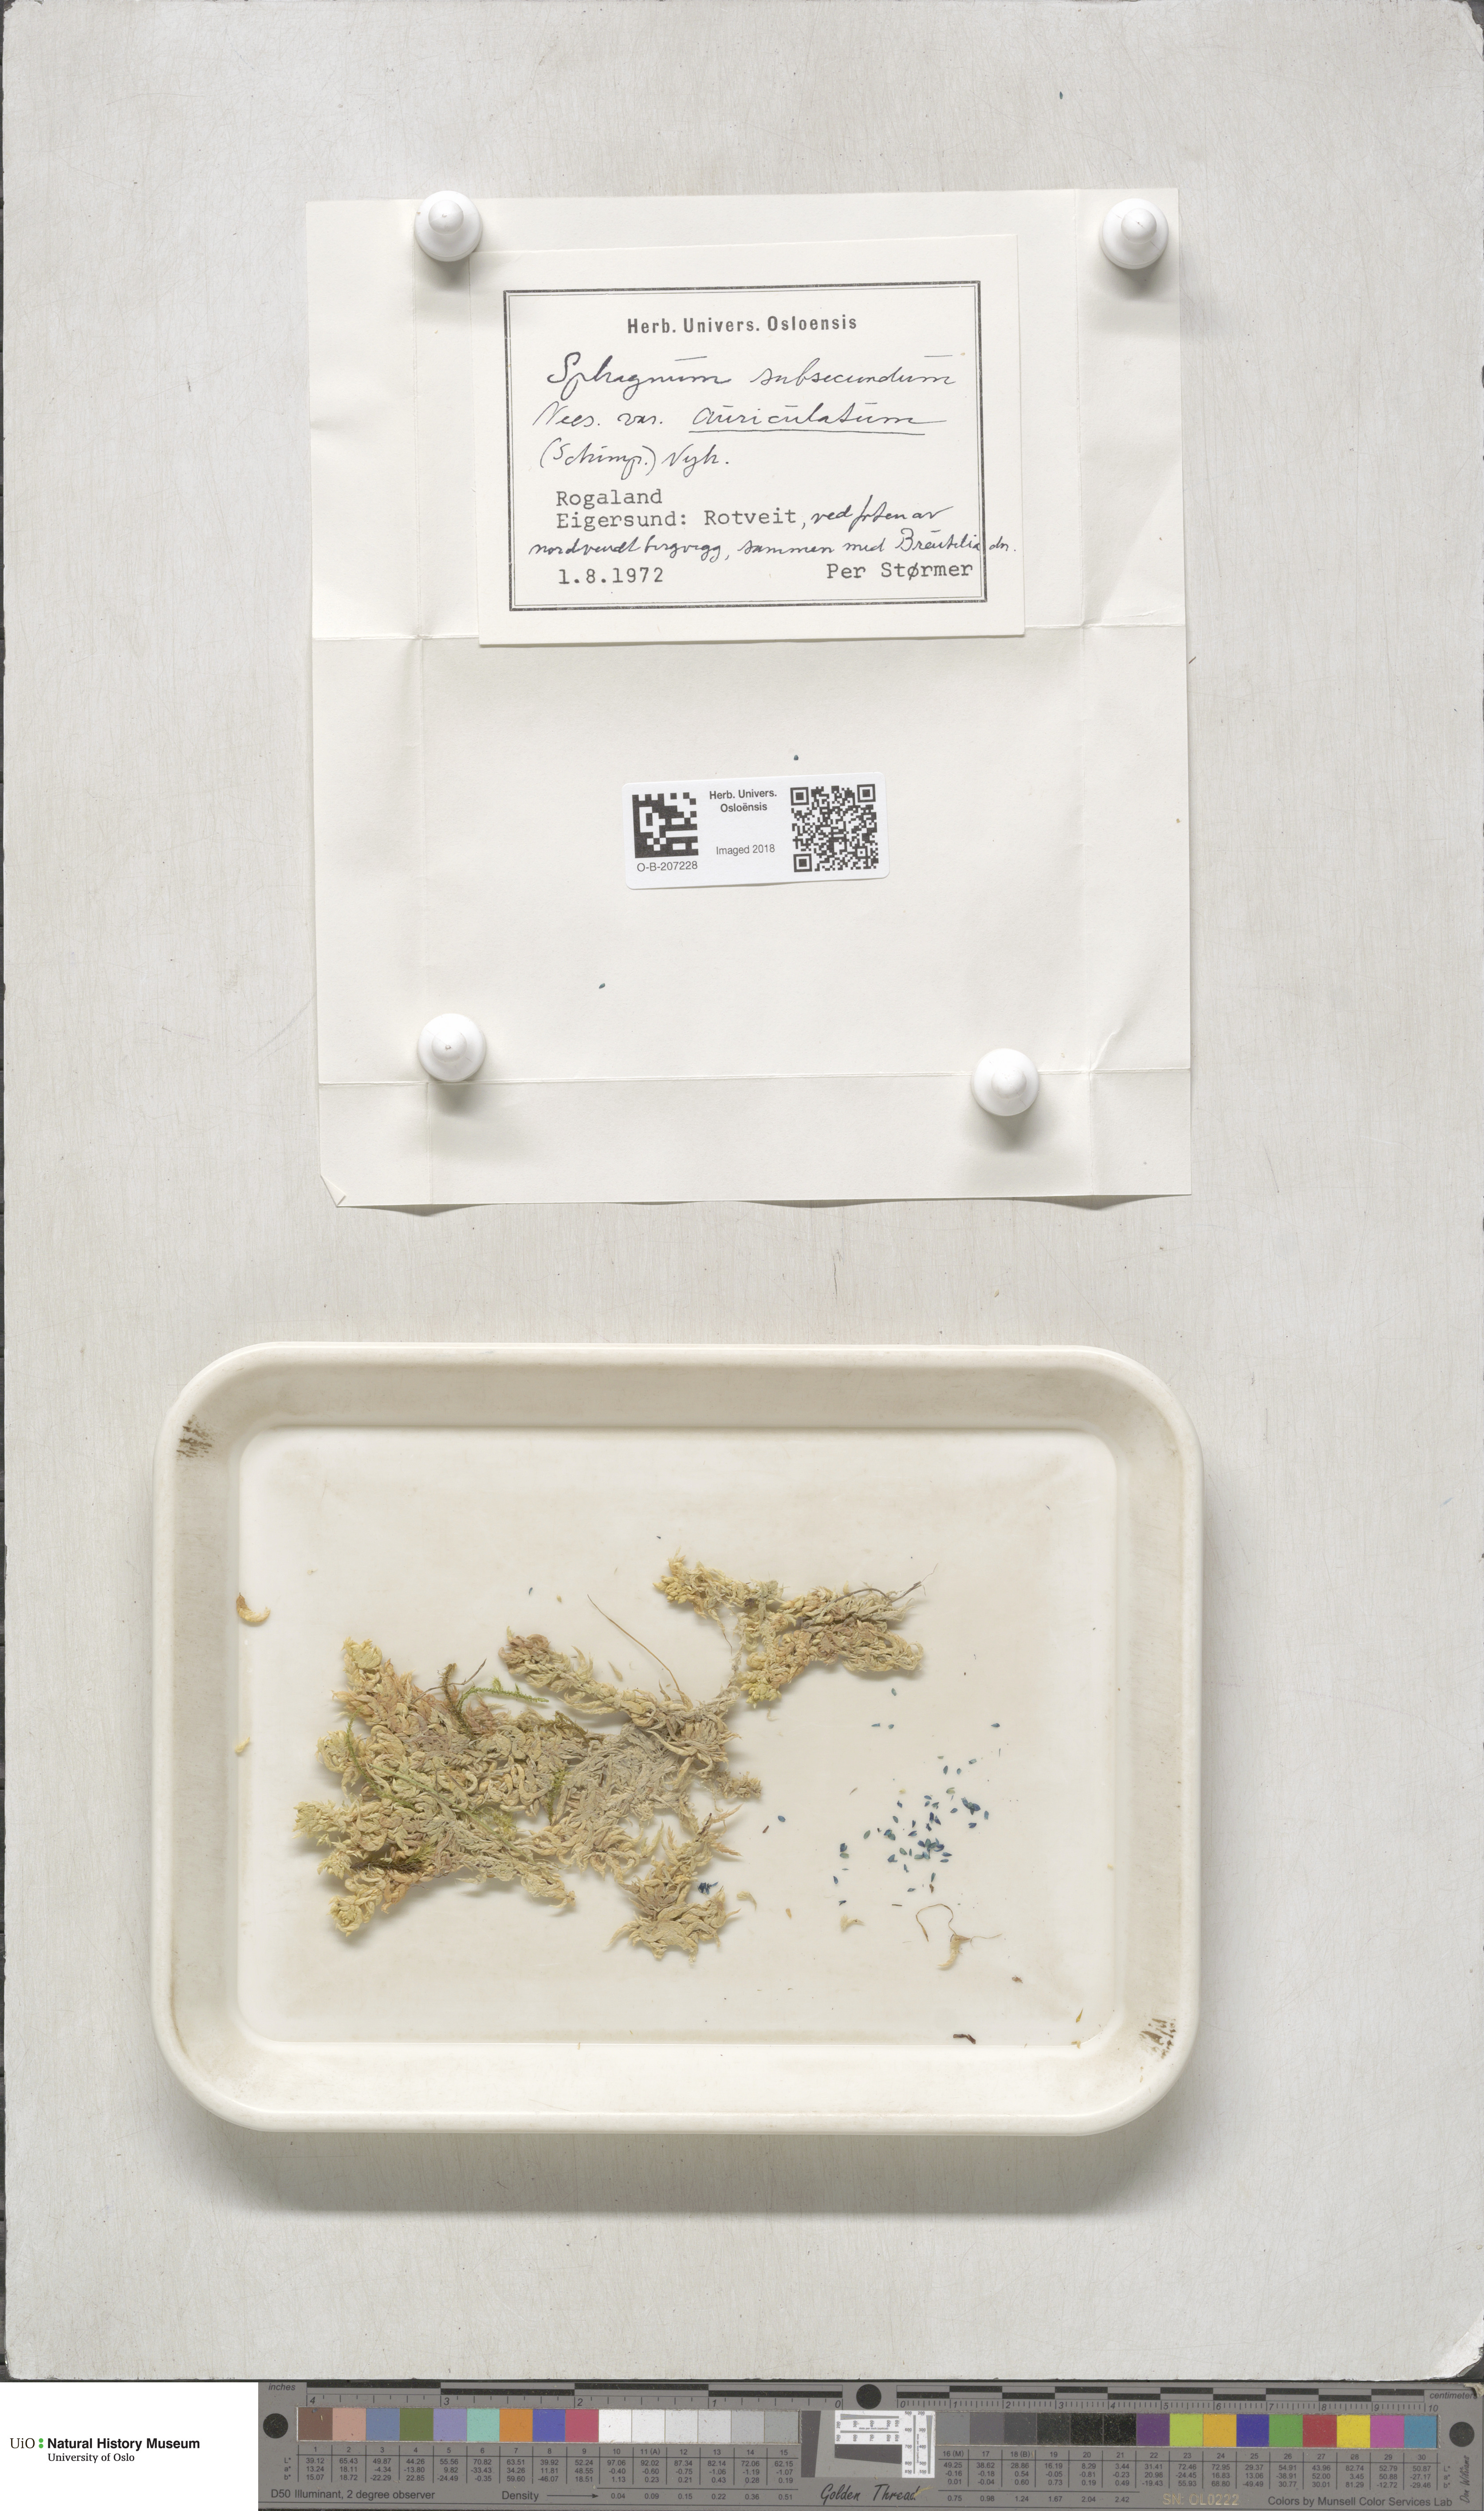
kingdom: Plantae
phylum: Bryophyta
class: Sphagnopsida
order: Sphagnales
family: Sphagnaceae
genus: Sphagnum
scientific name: Sphagnum subsecundum
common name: Orange peat moss
